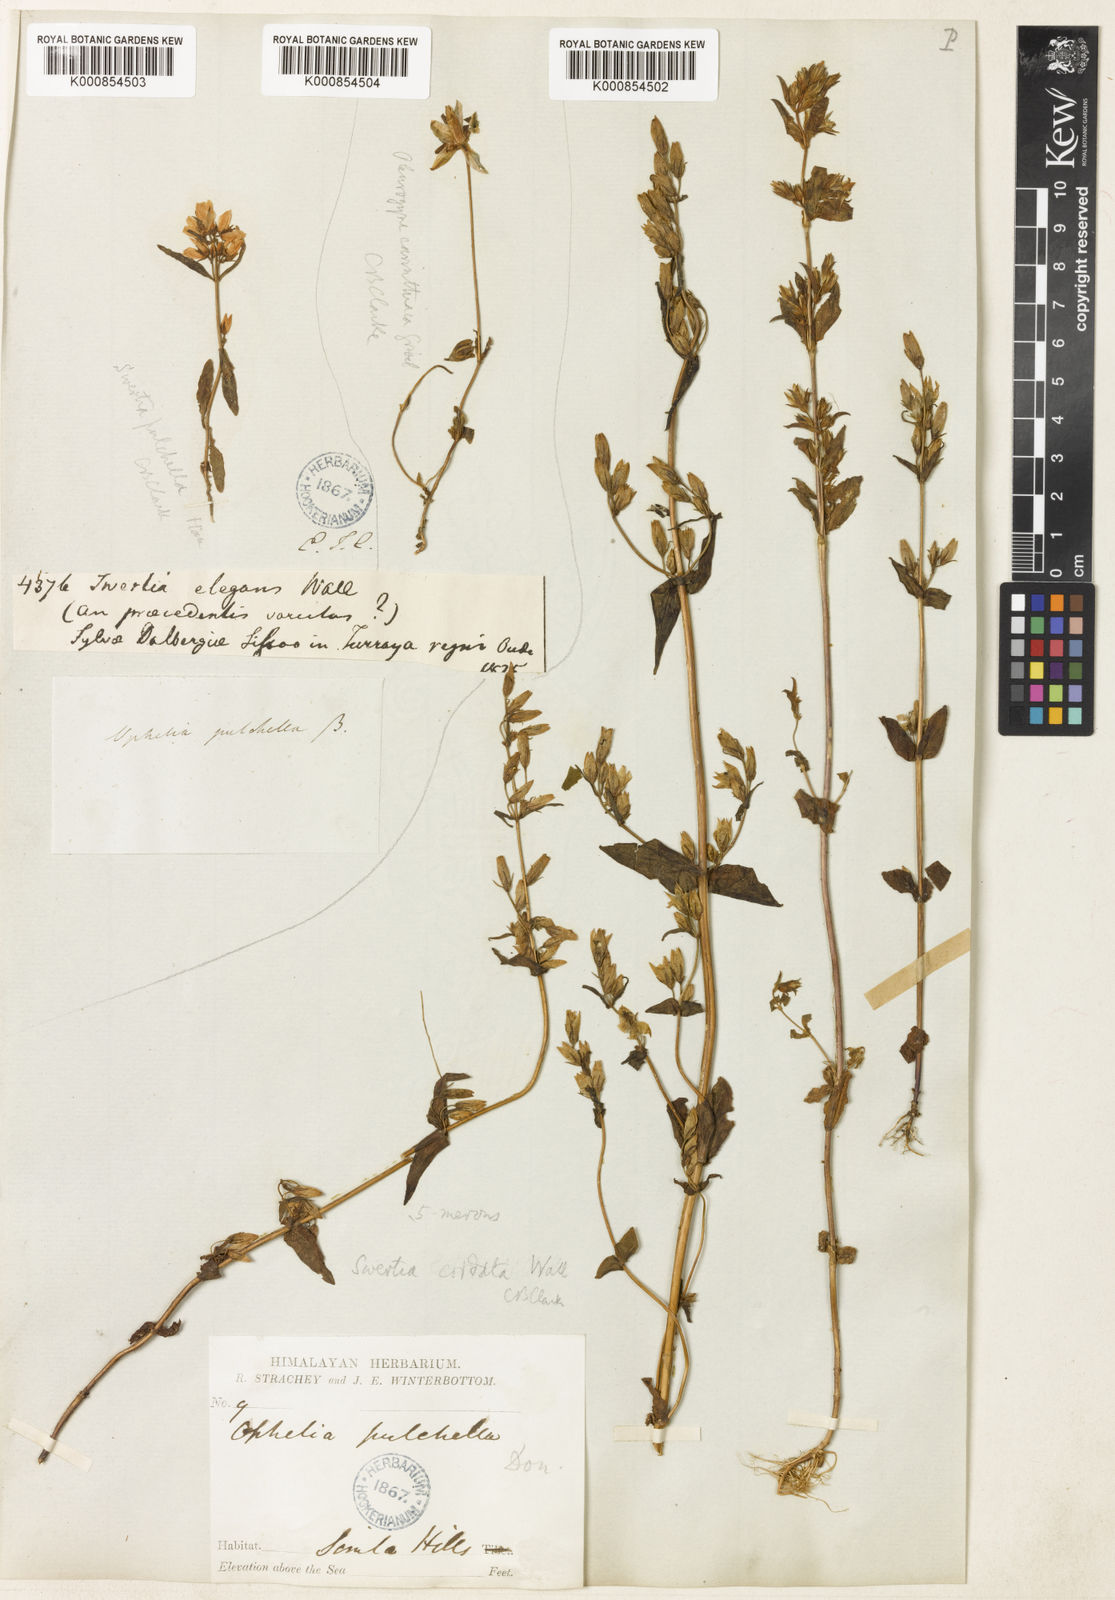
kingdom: Plantae
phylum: Tracheophyta
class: Magnoliopsida
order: Gentianales
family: Gentianaceae
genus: Swertia
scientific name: Swertia
